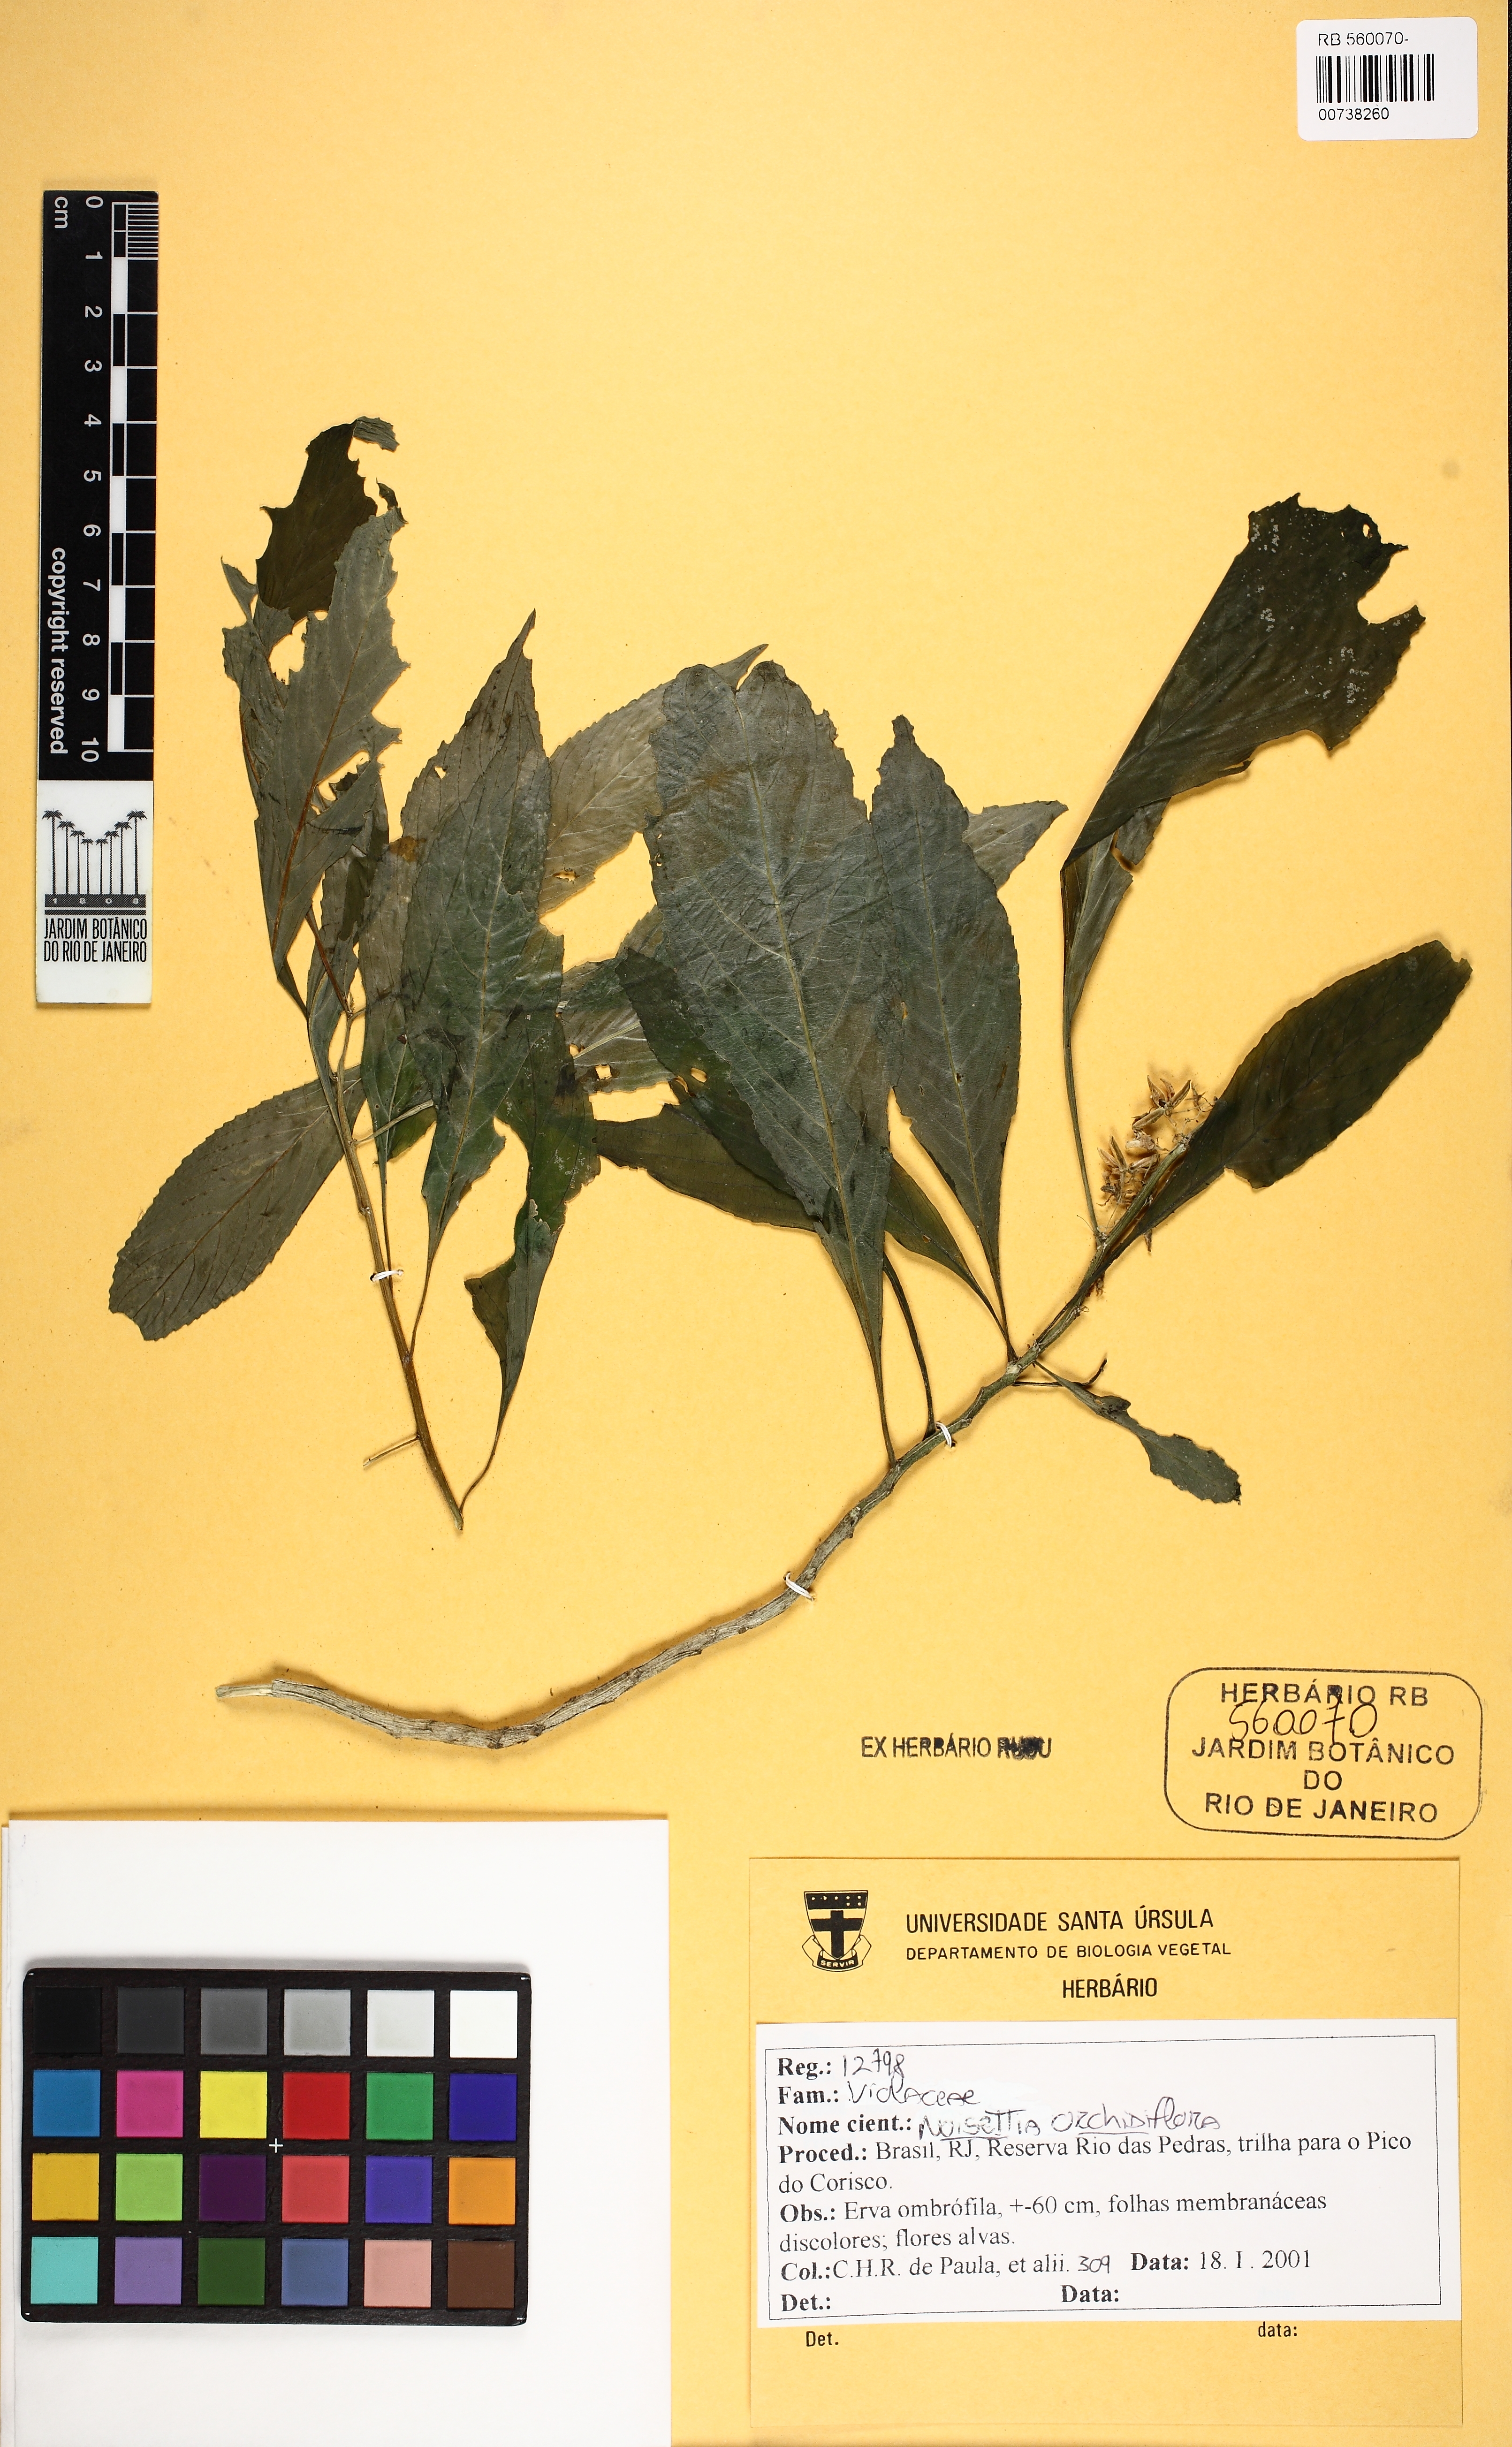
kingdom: Plantae
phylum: Tracheophyta
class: Magnoliopsida
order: Malpighiales
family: Violaceae
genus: Noisettia
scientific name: Noisettia orchidiflora
